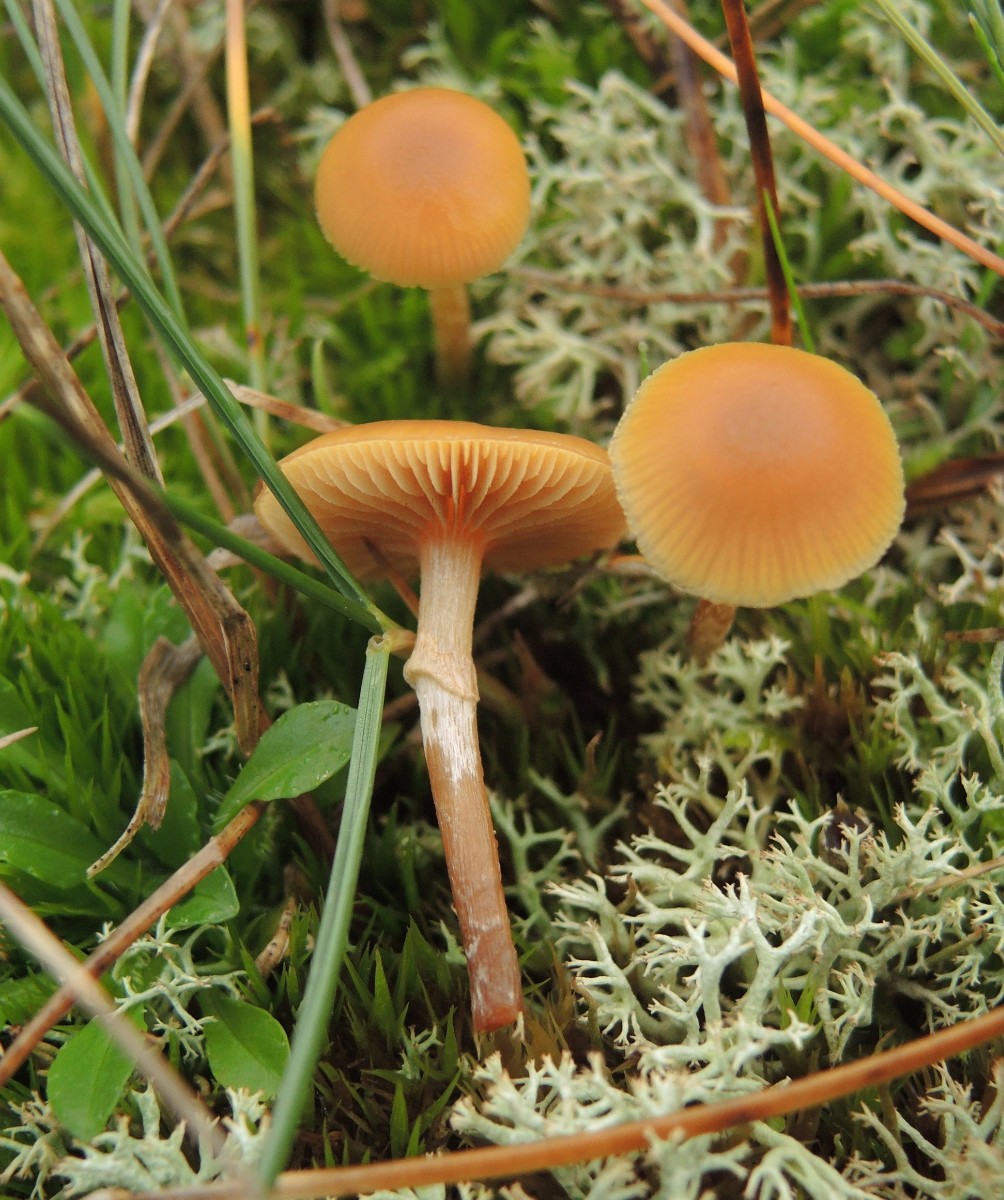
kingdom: Fungi
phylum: Basidiomycota
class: Agaricomycetes
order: Agaricales
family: Hymenogastraceae
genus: Galerina
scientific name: Galerina marginata
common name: randbæltet hjelmhat
